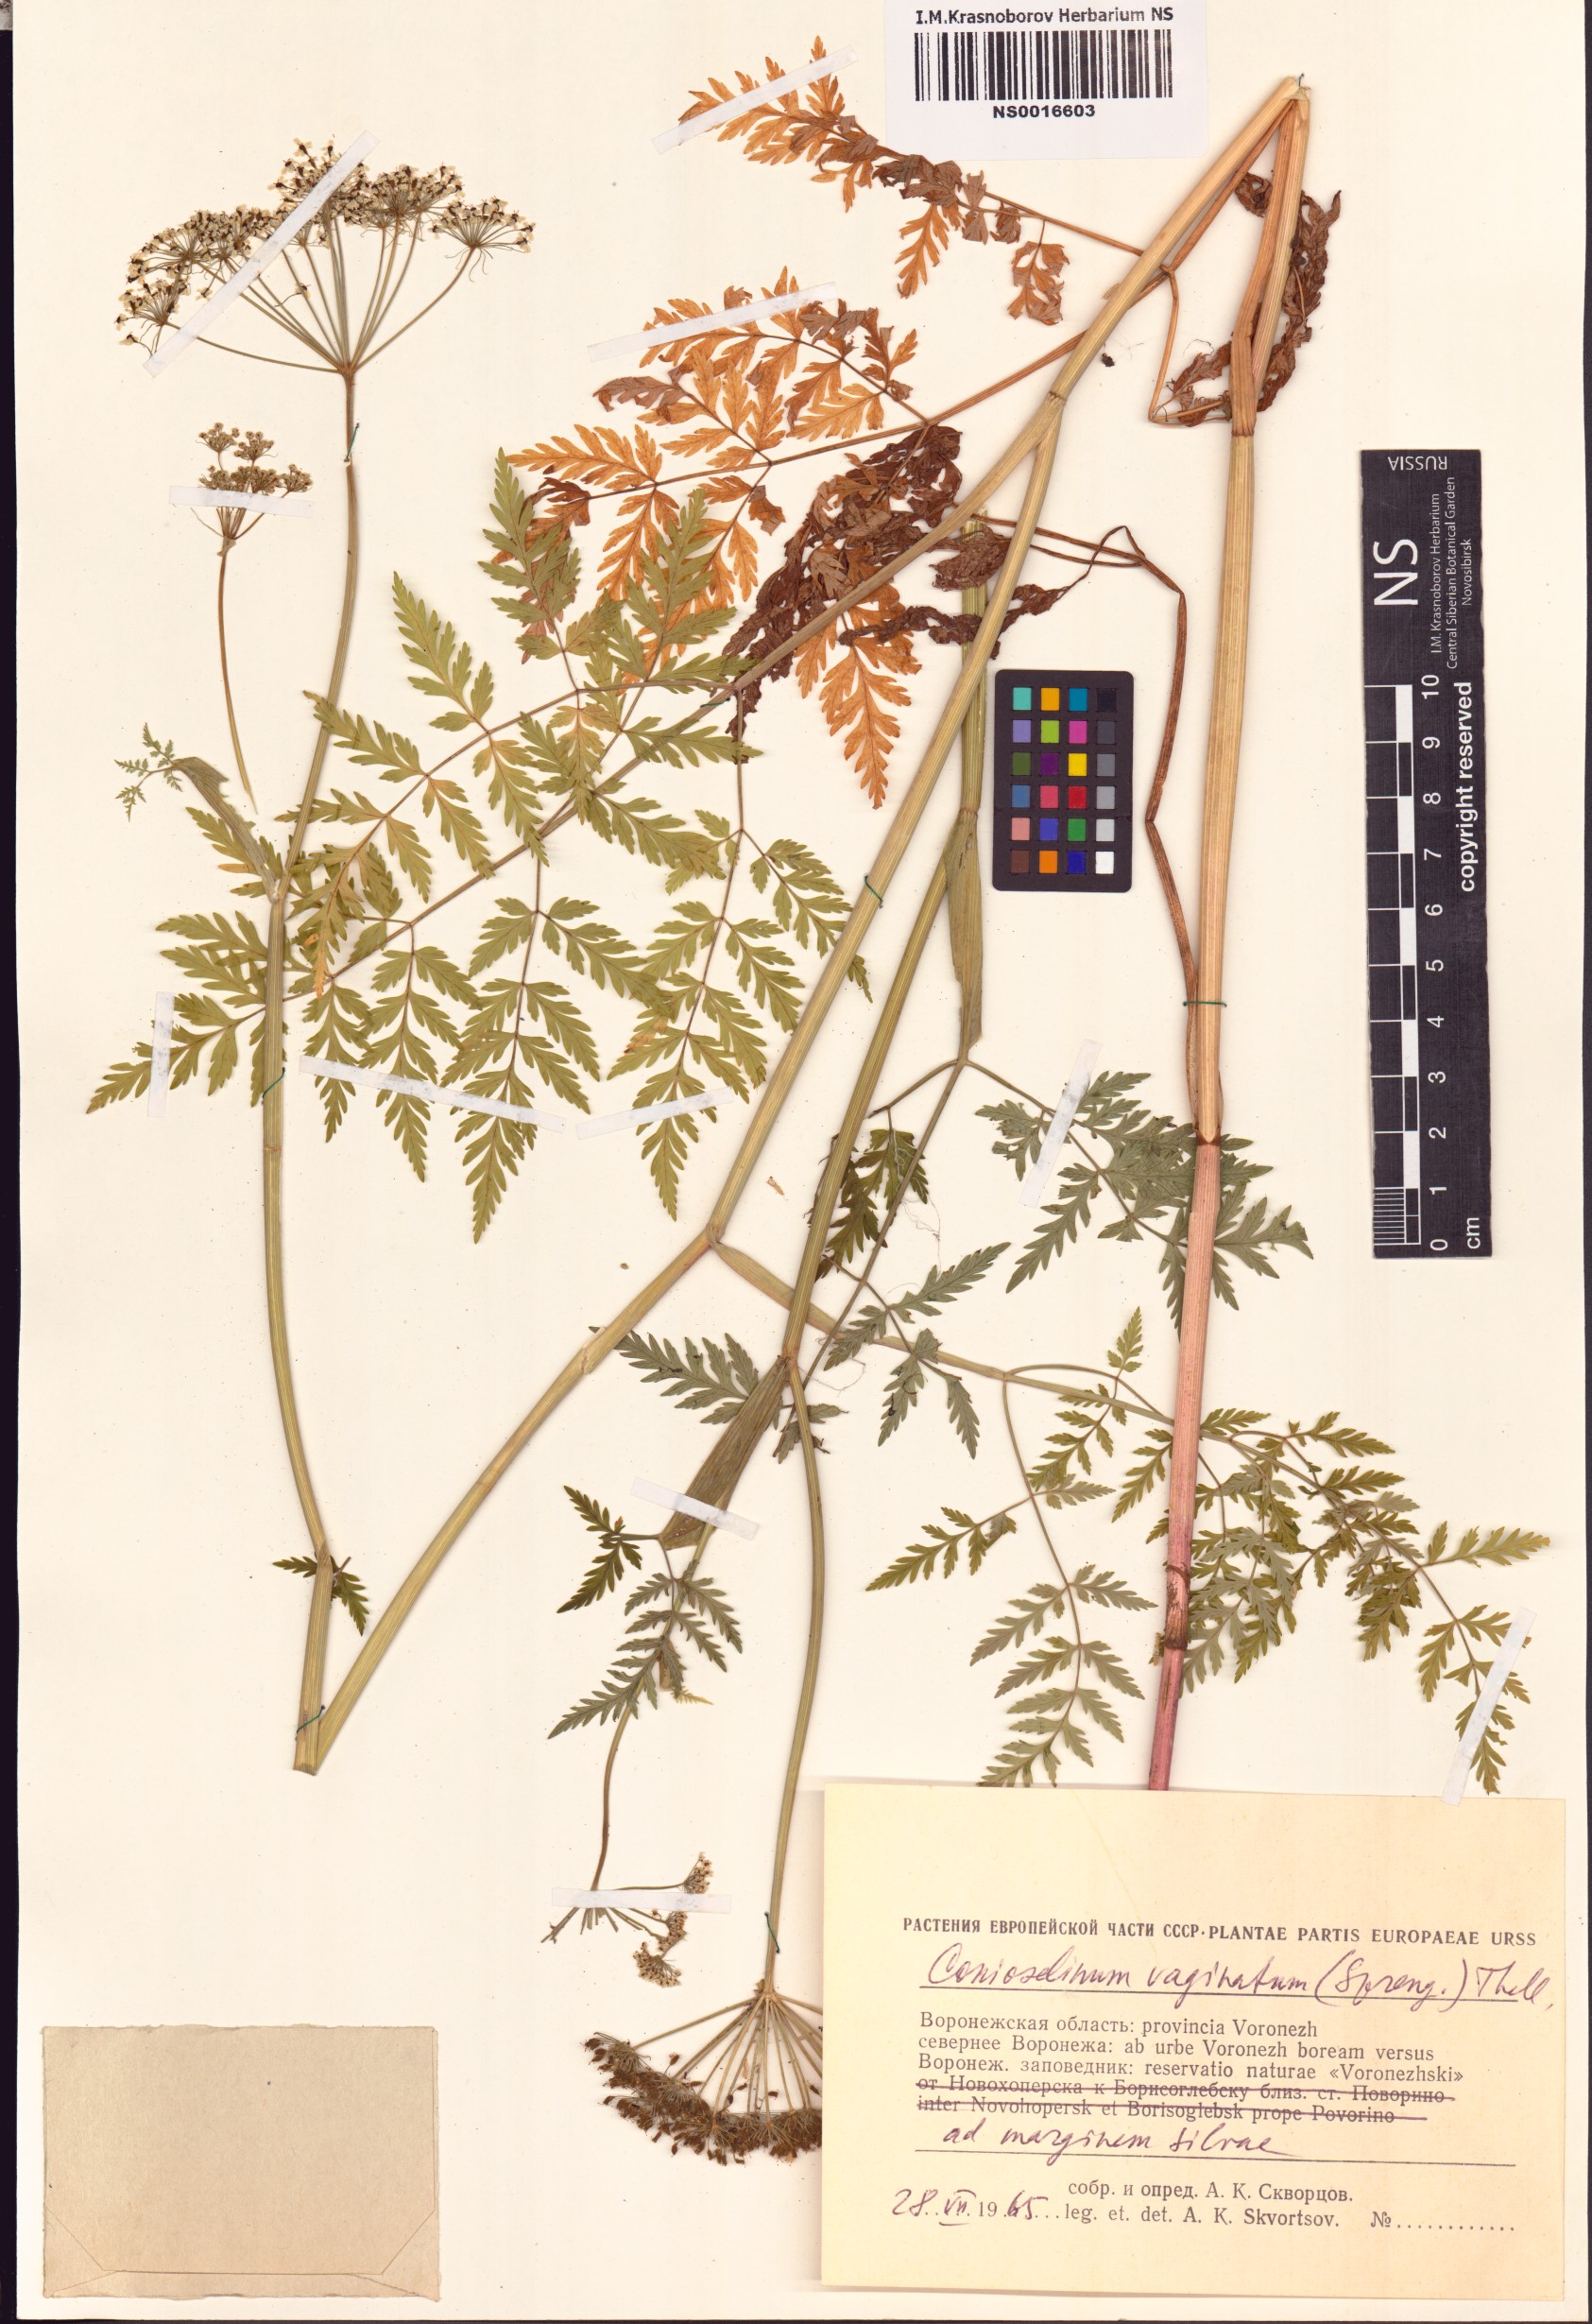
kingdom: Plantae
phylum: Tracheophyta
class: Magnoliopsida
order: Apiales
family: Apiaceae
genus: Seseli
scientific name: Seseli condensatum
